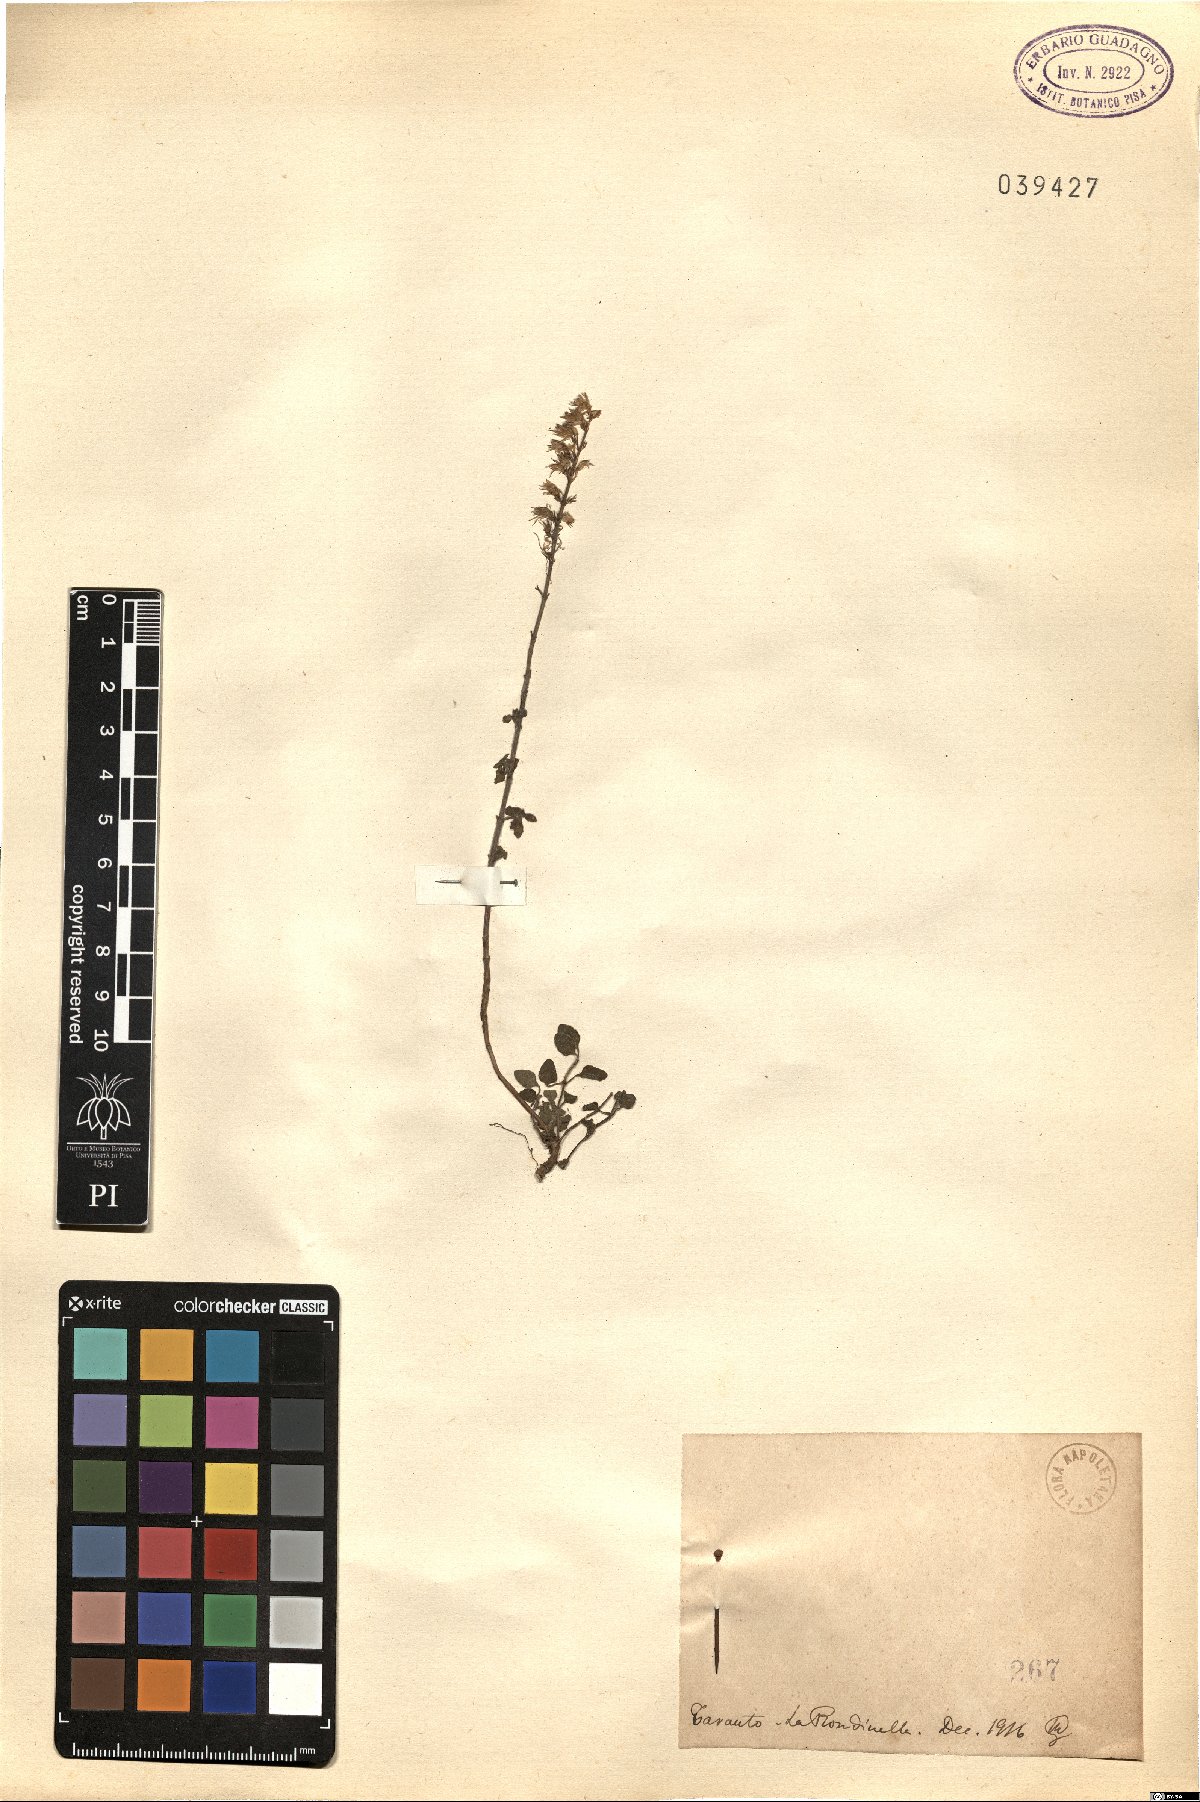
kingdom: Plantae
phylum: Tracheophyta
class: Magnoliopsida
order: Lamiales
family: Lamiaceae
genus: Calamintha
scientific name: Calamintha
